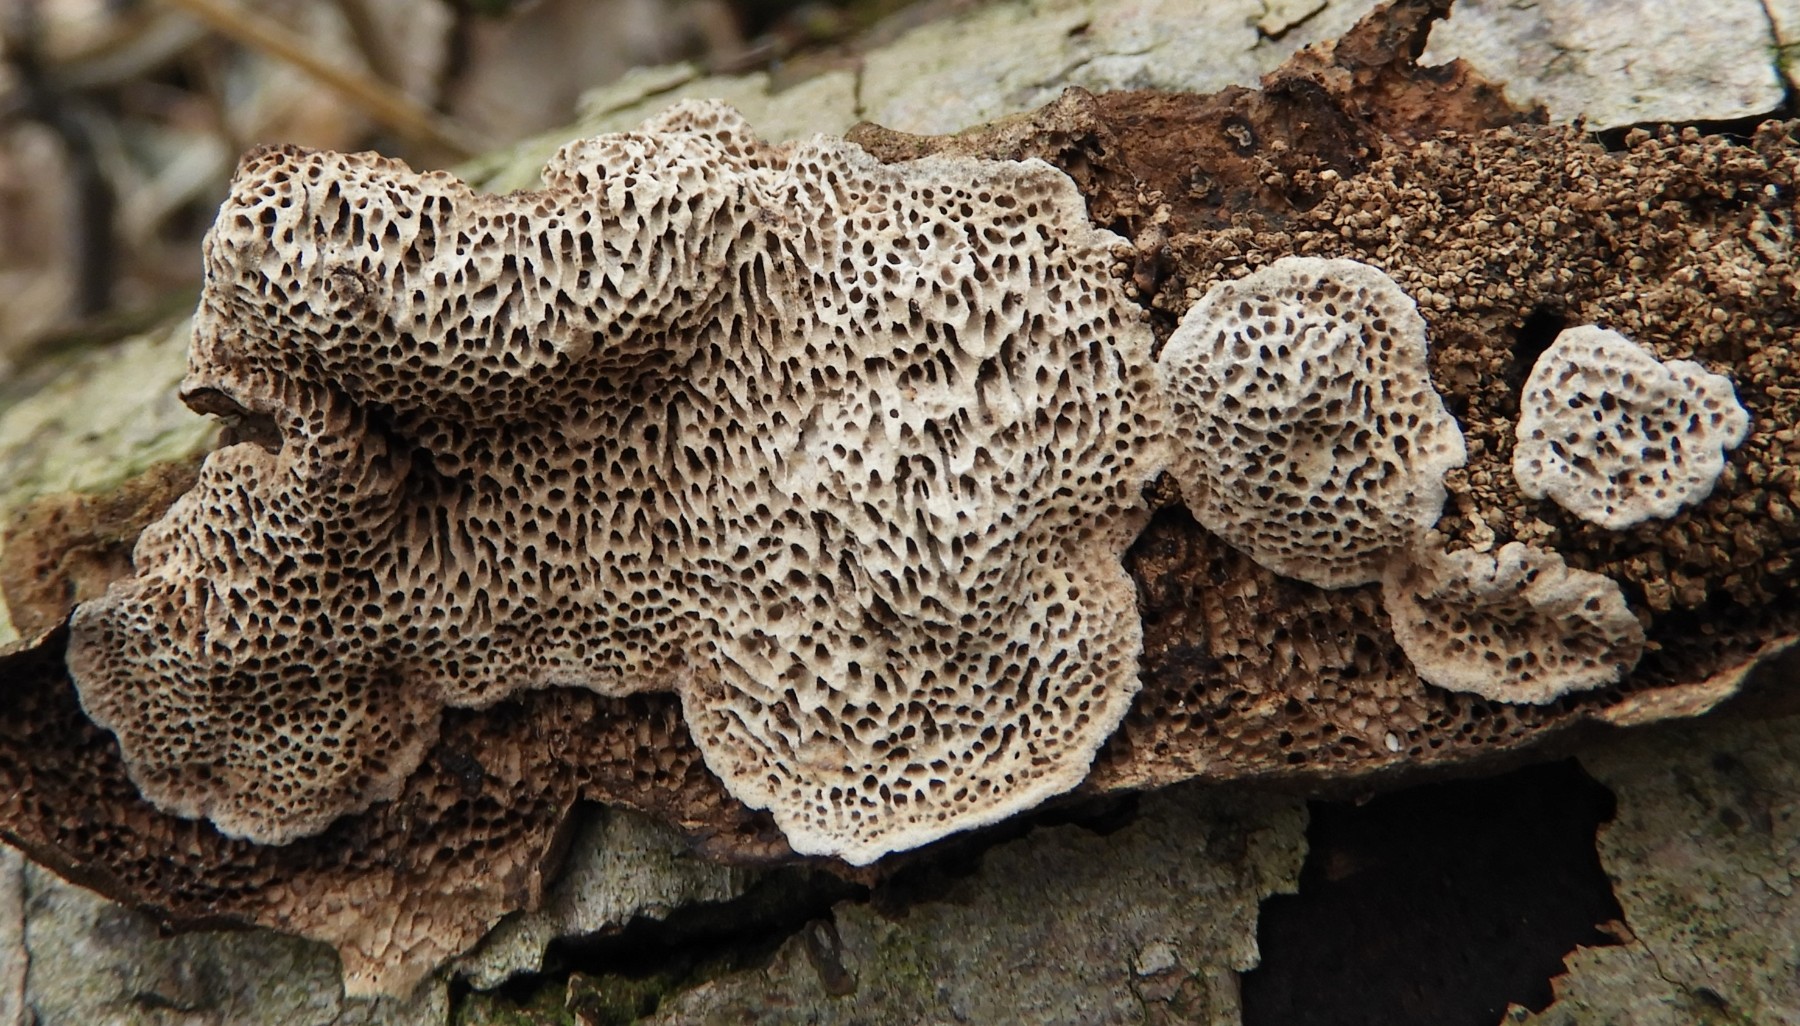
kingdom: Fungi
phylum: Basidiomycota
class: Agaricomycetes
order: Polyporales
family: Polyporaceae
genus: Podofomes
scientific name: Podofomes mollis
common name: blød begporesvamp
